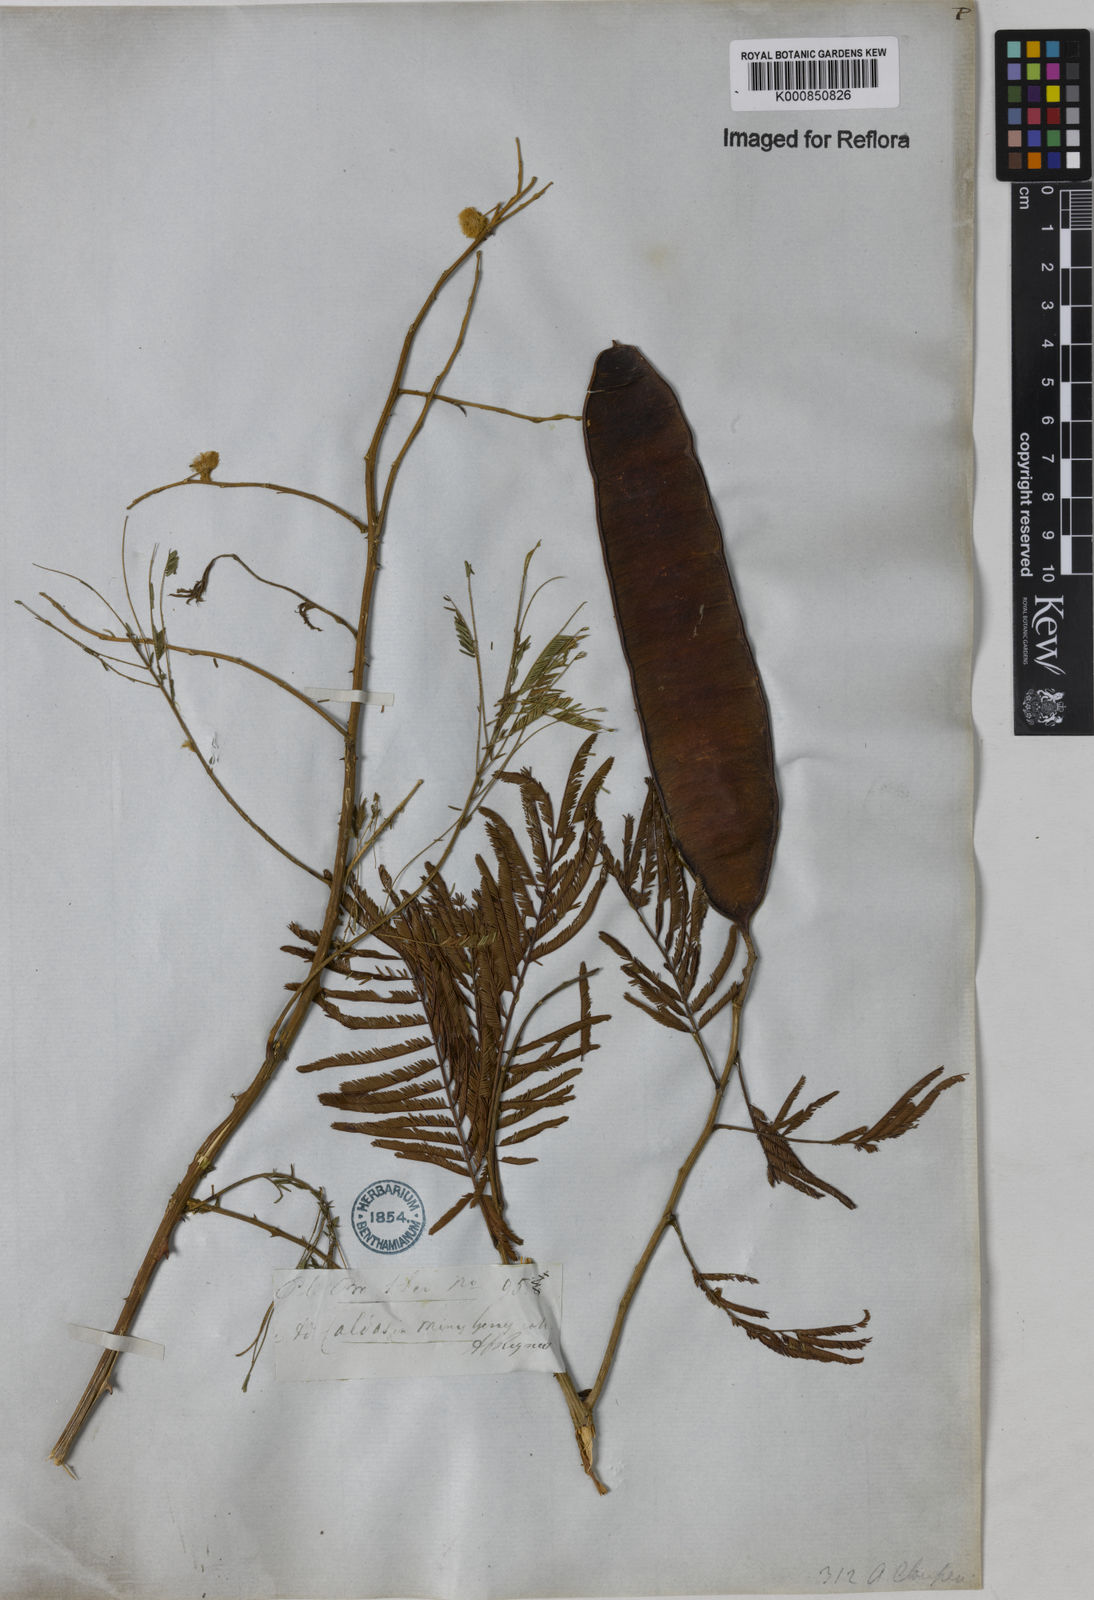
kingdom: Plantae
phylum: Tracheophyta
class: Magnoliopsida
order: Fabales
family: Fabaceae
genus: Senegalia
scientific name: Senegalia tenuifolia
